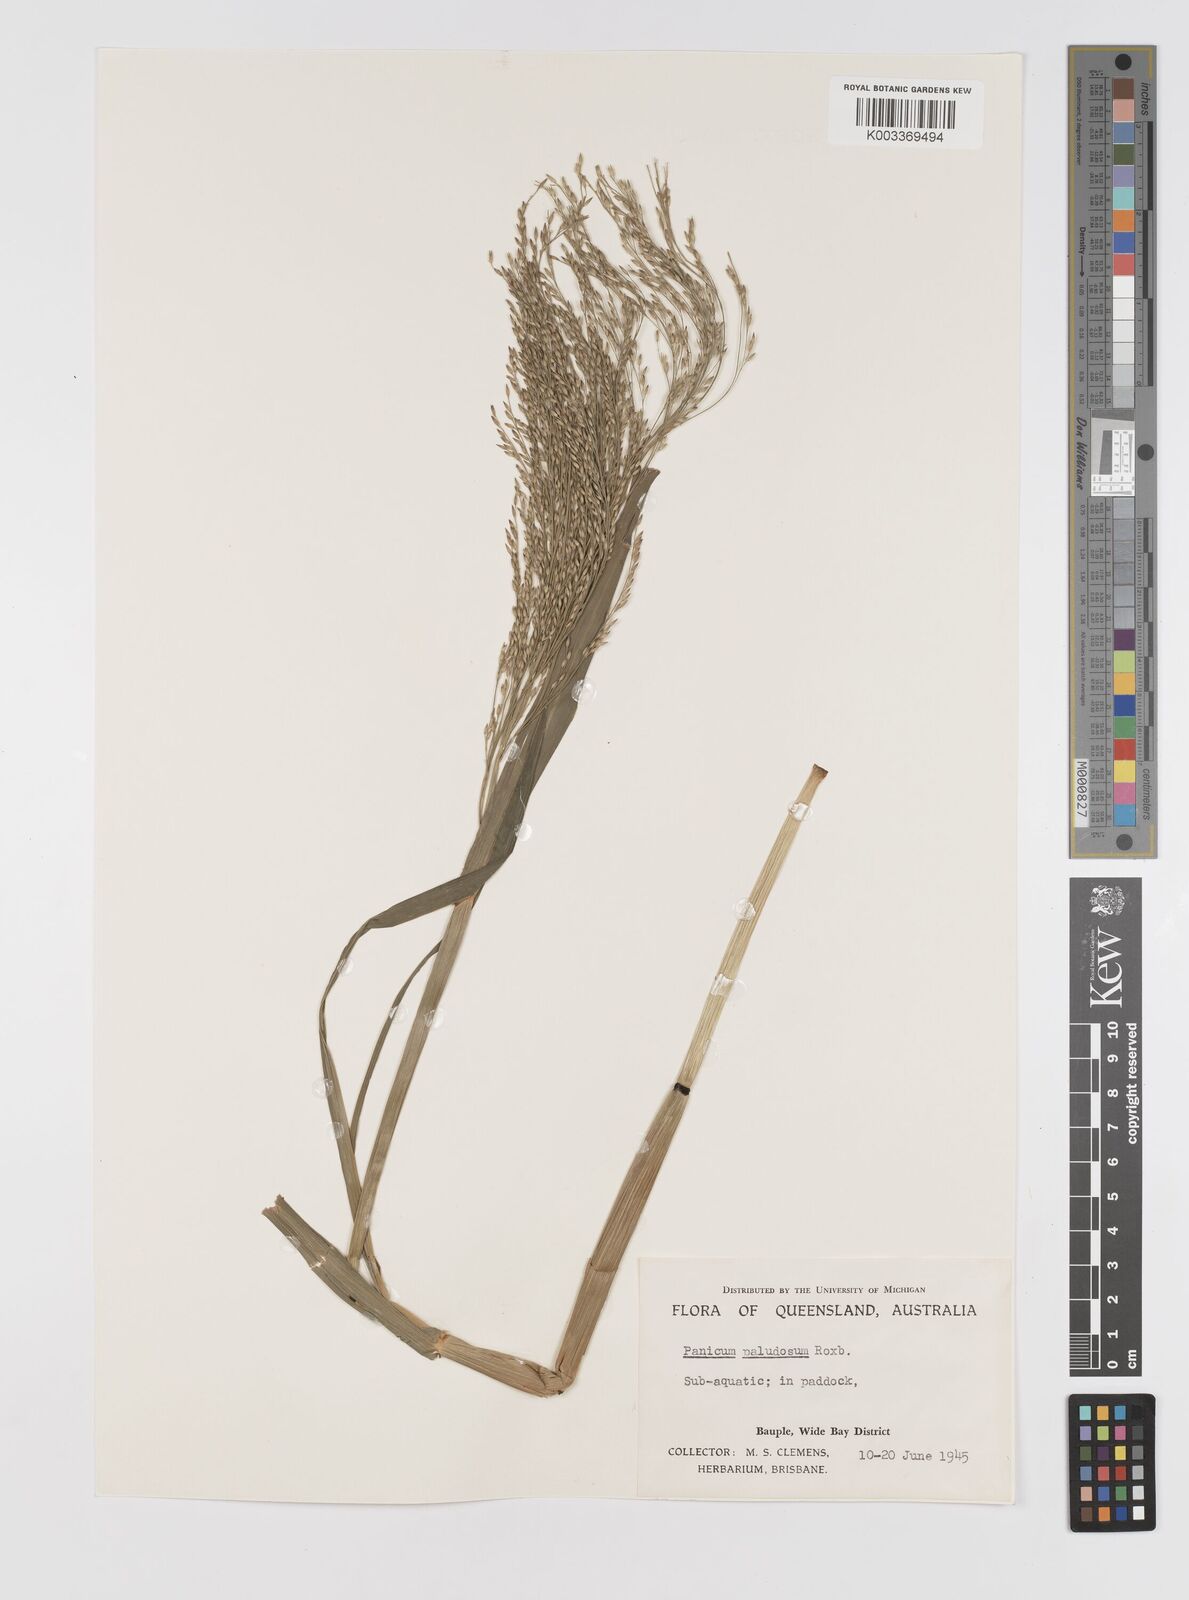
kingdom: Plantae
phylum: Tracheophyta
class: Liliopsida
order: Poales
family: Poaceae
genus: Louisiella
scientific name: Louisiella paludosa
